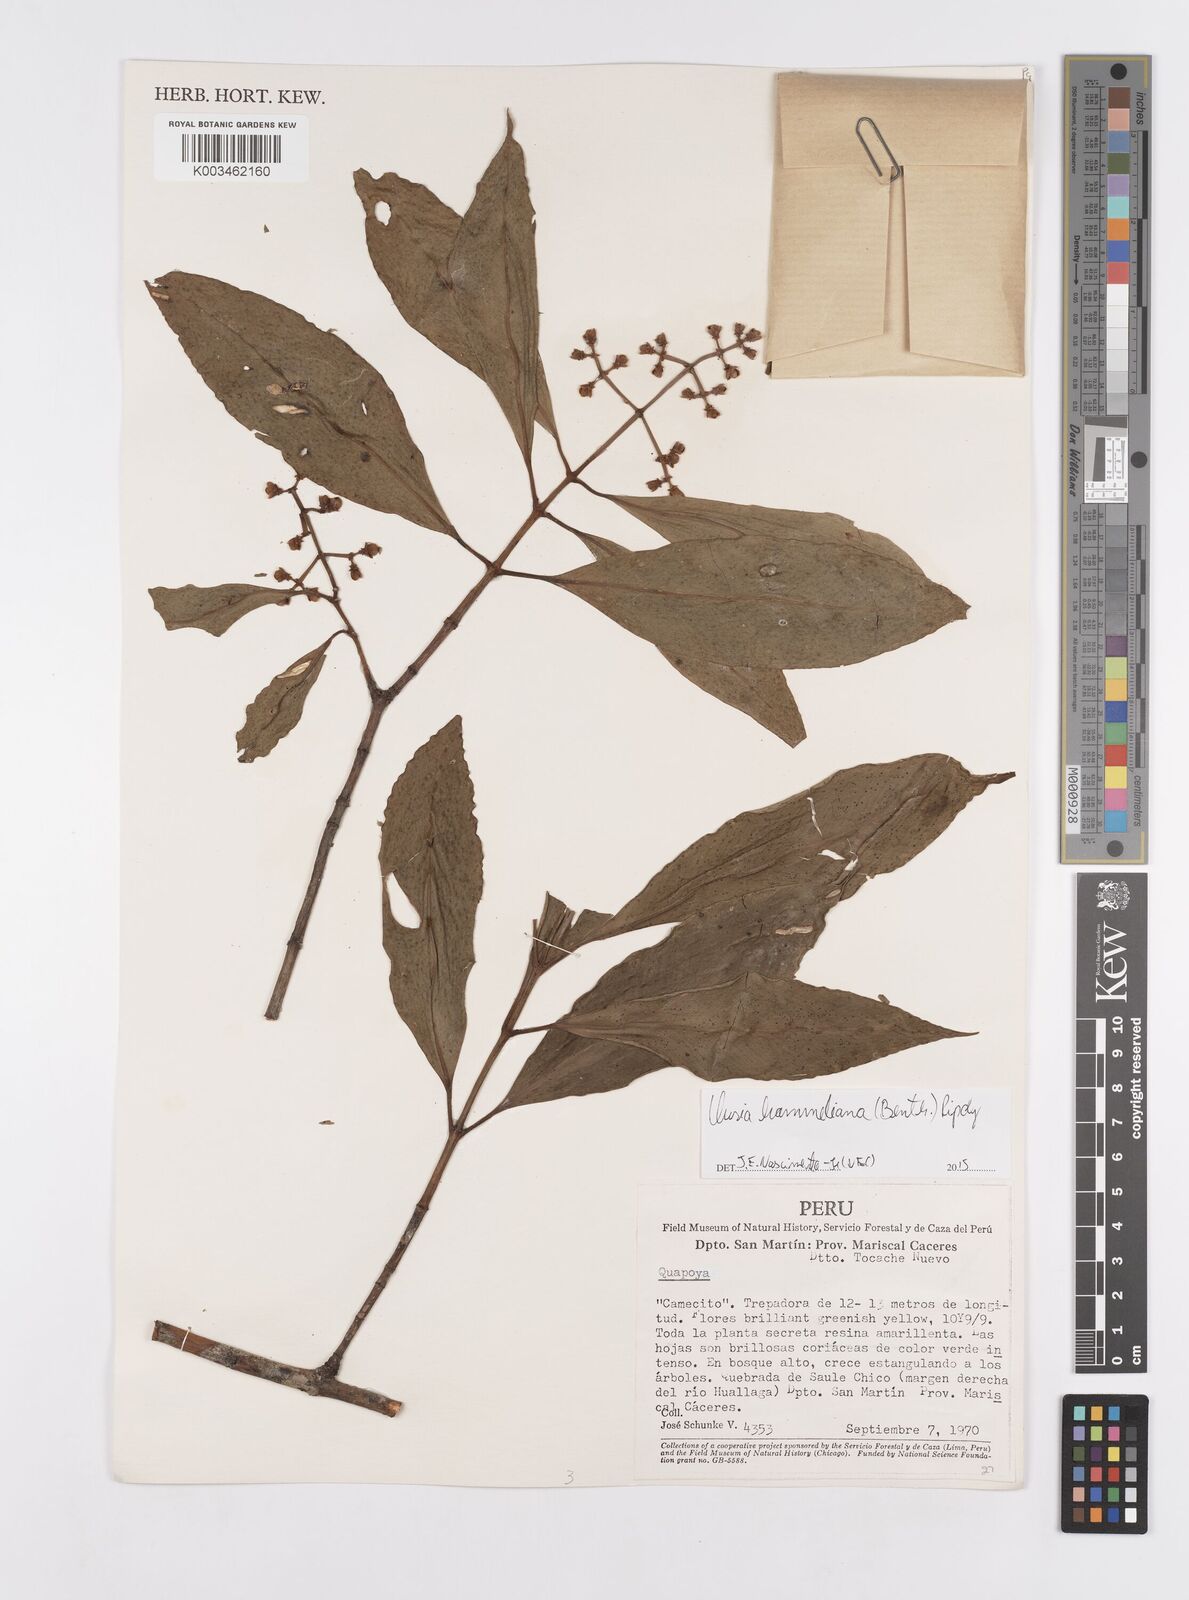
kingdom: Plantae
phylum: Tracheophyta
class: Magnoliopsida
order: Malpighiales
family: Clusiaceae
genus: Clusia
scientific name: Clusia hammeliana
